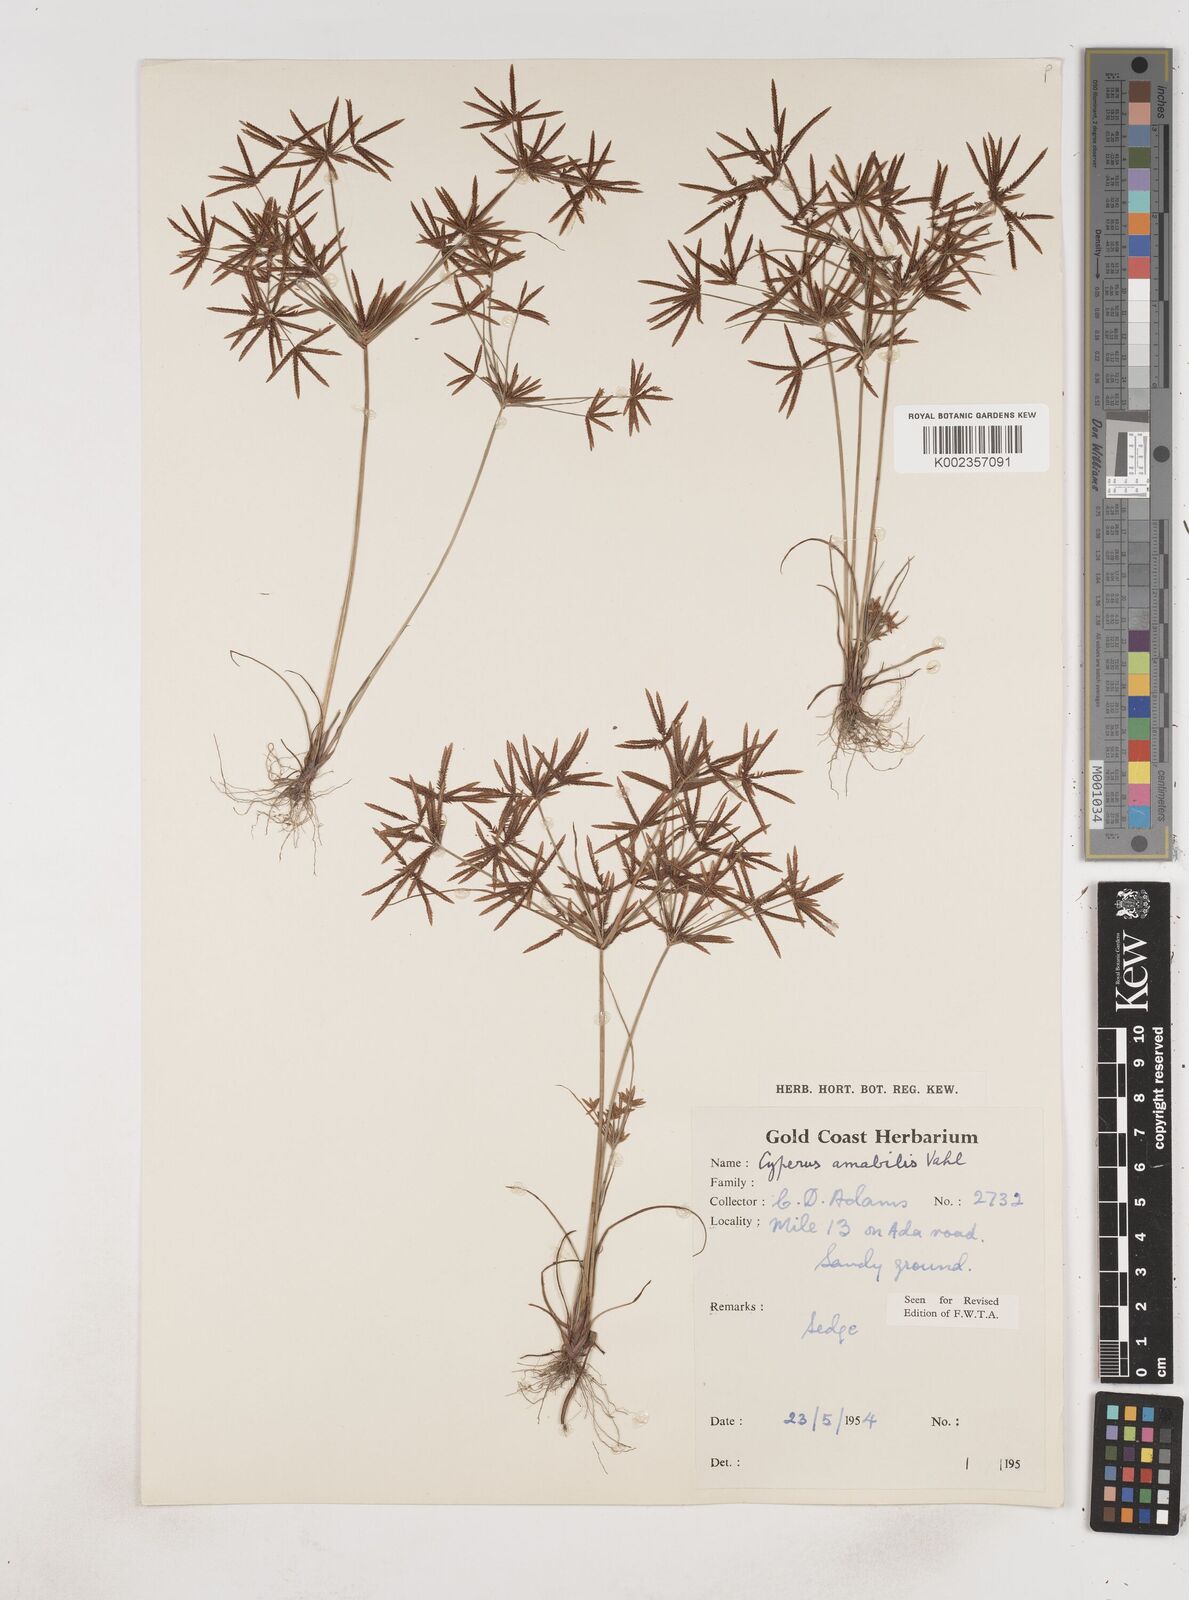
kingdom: Plantae
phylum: Tracheophyta
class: Liliopsida
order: Poales
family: Cyperaceae
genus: Cyperus
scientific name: Cyperus amabilis
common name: Foothill flat sedge
